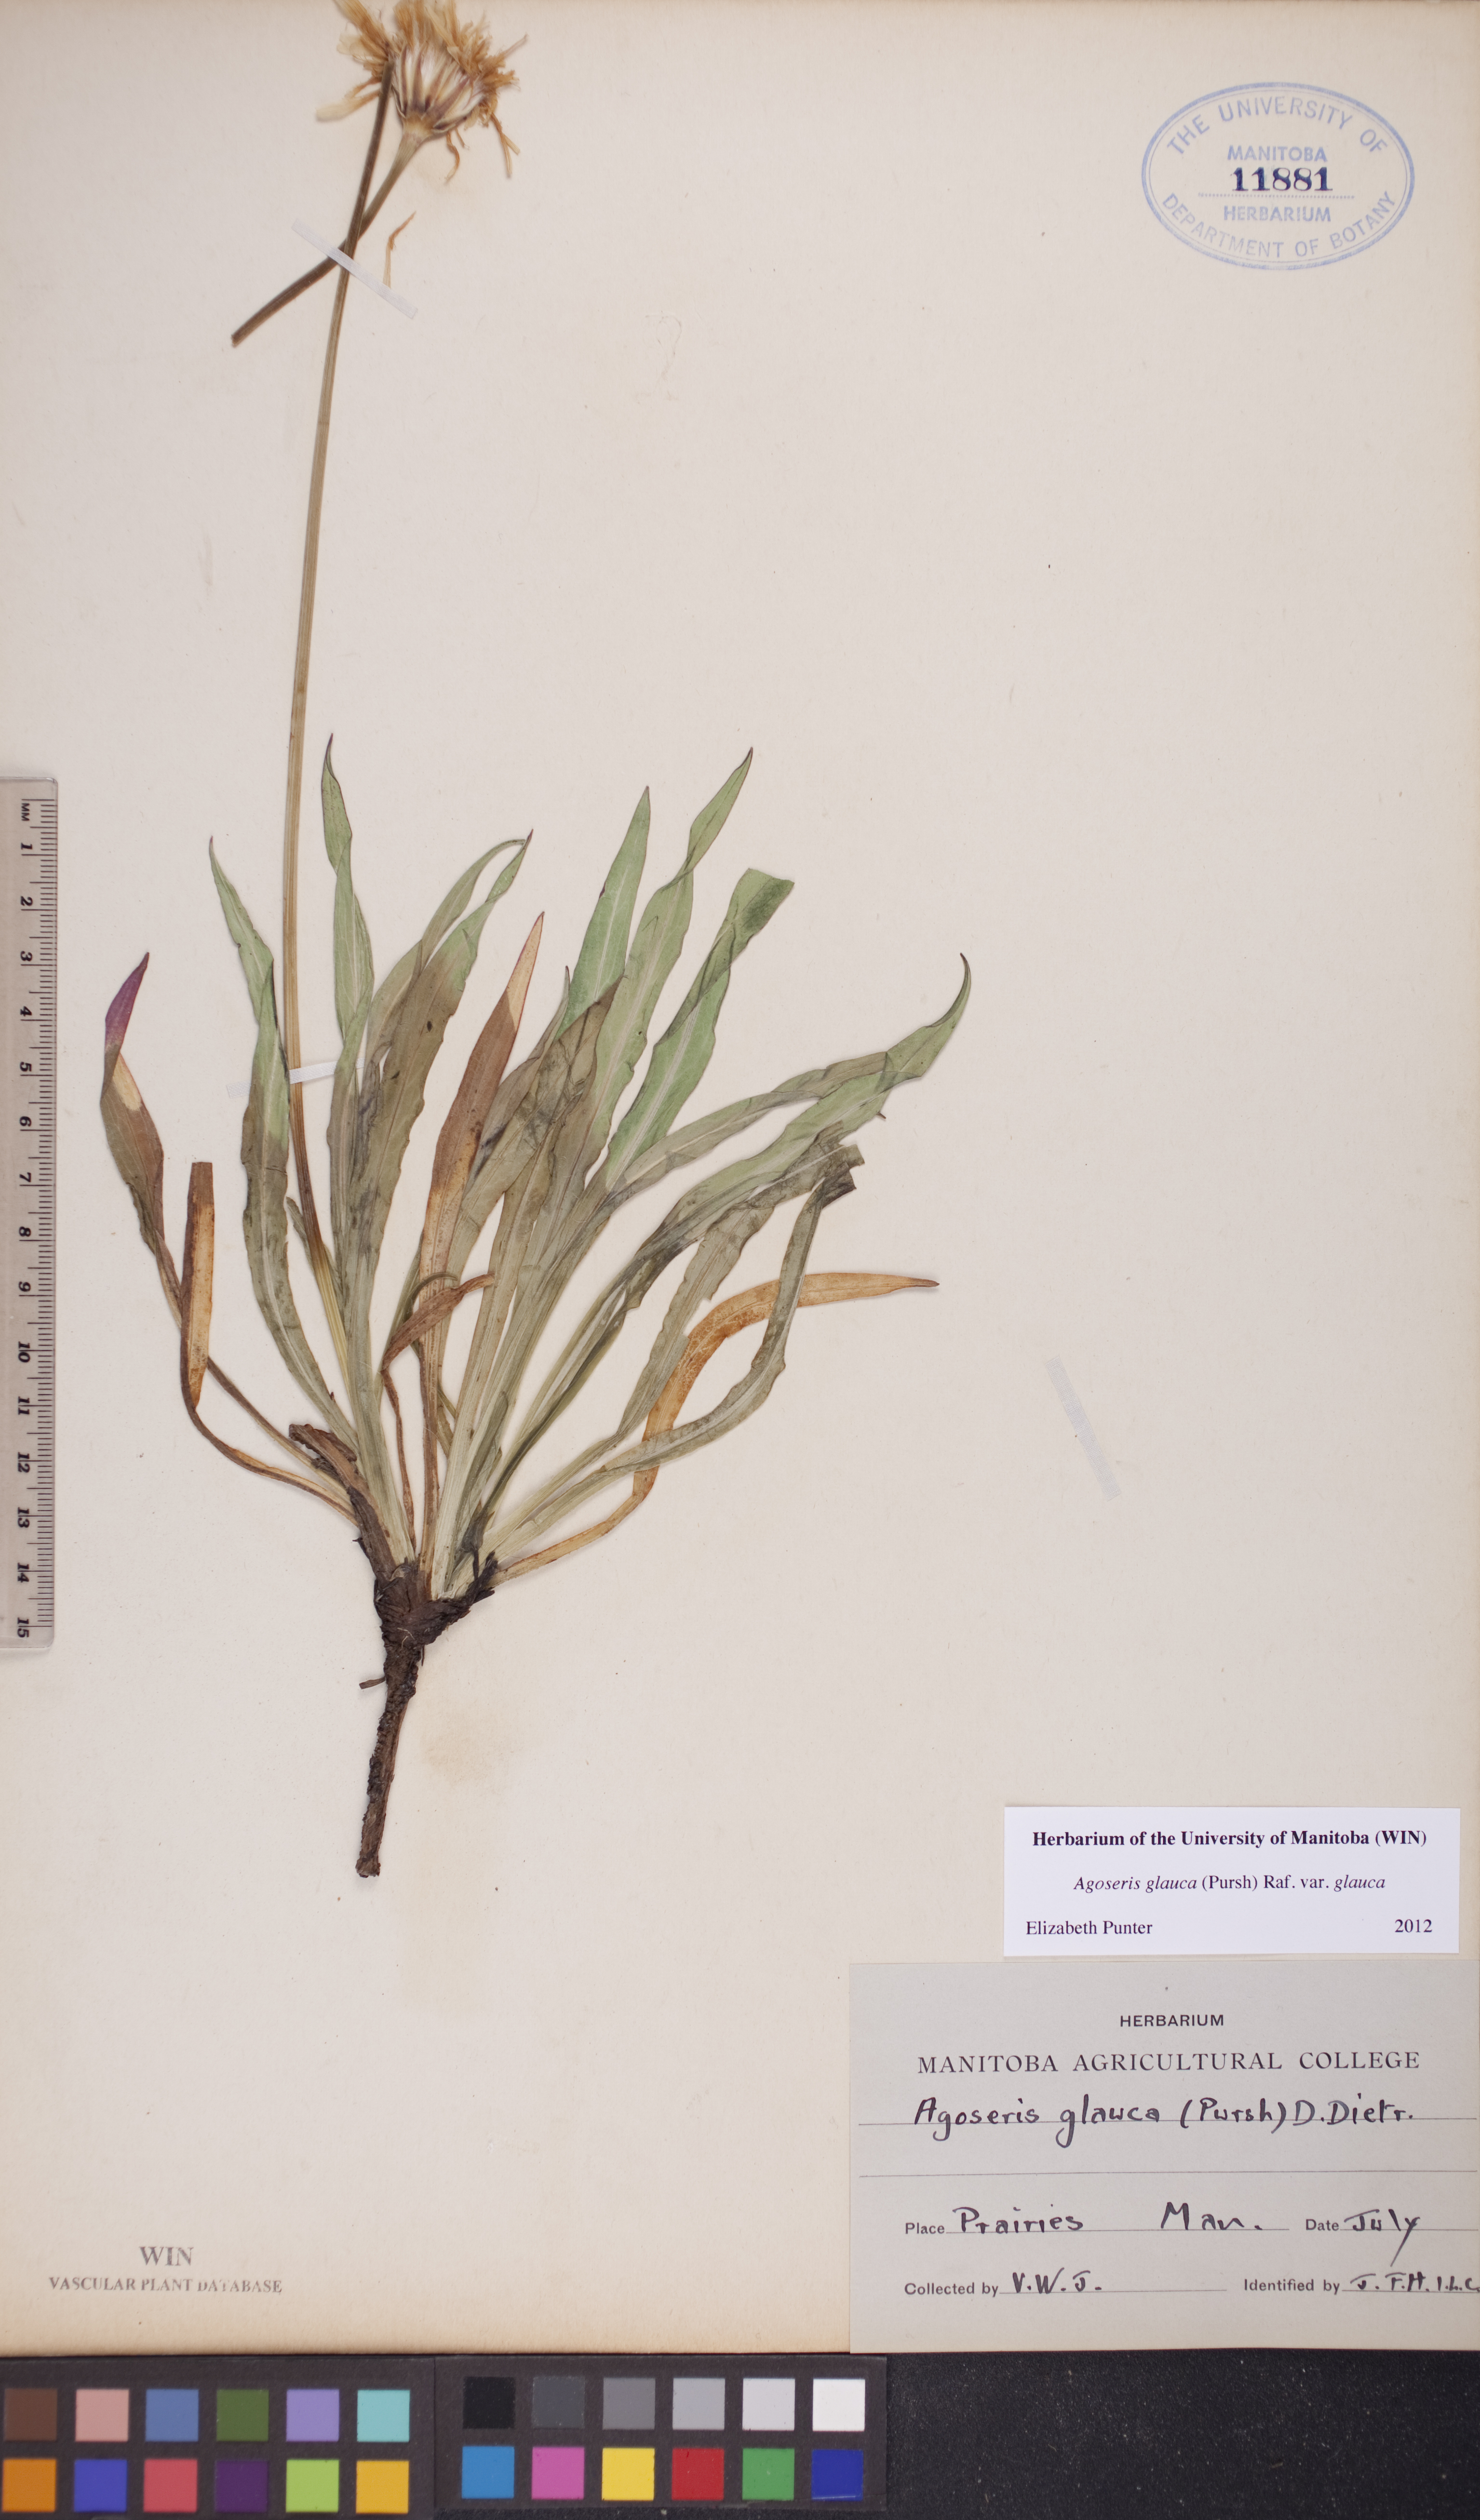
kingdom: Plantae
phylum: Tracheophyta
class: Magnoliopsida
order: Asterales
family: Asteraceae
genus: Agoseris
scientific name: Agoseris glauca
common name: Prairie agoseris
